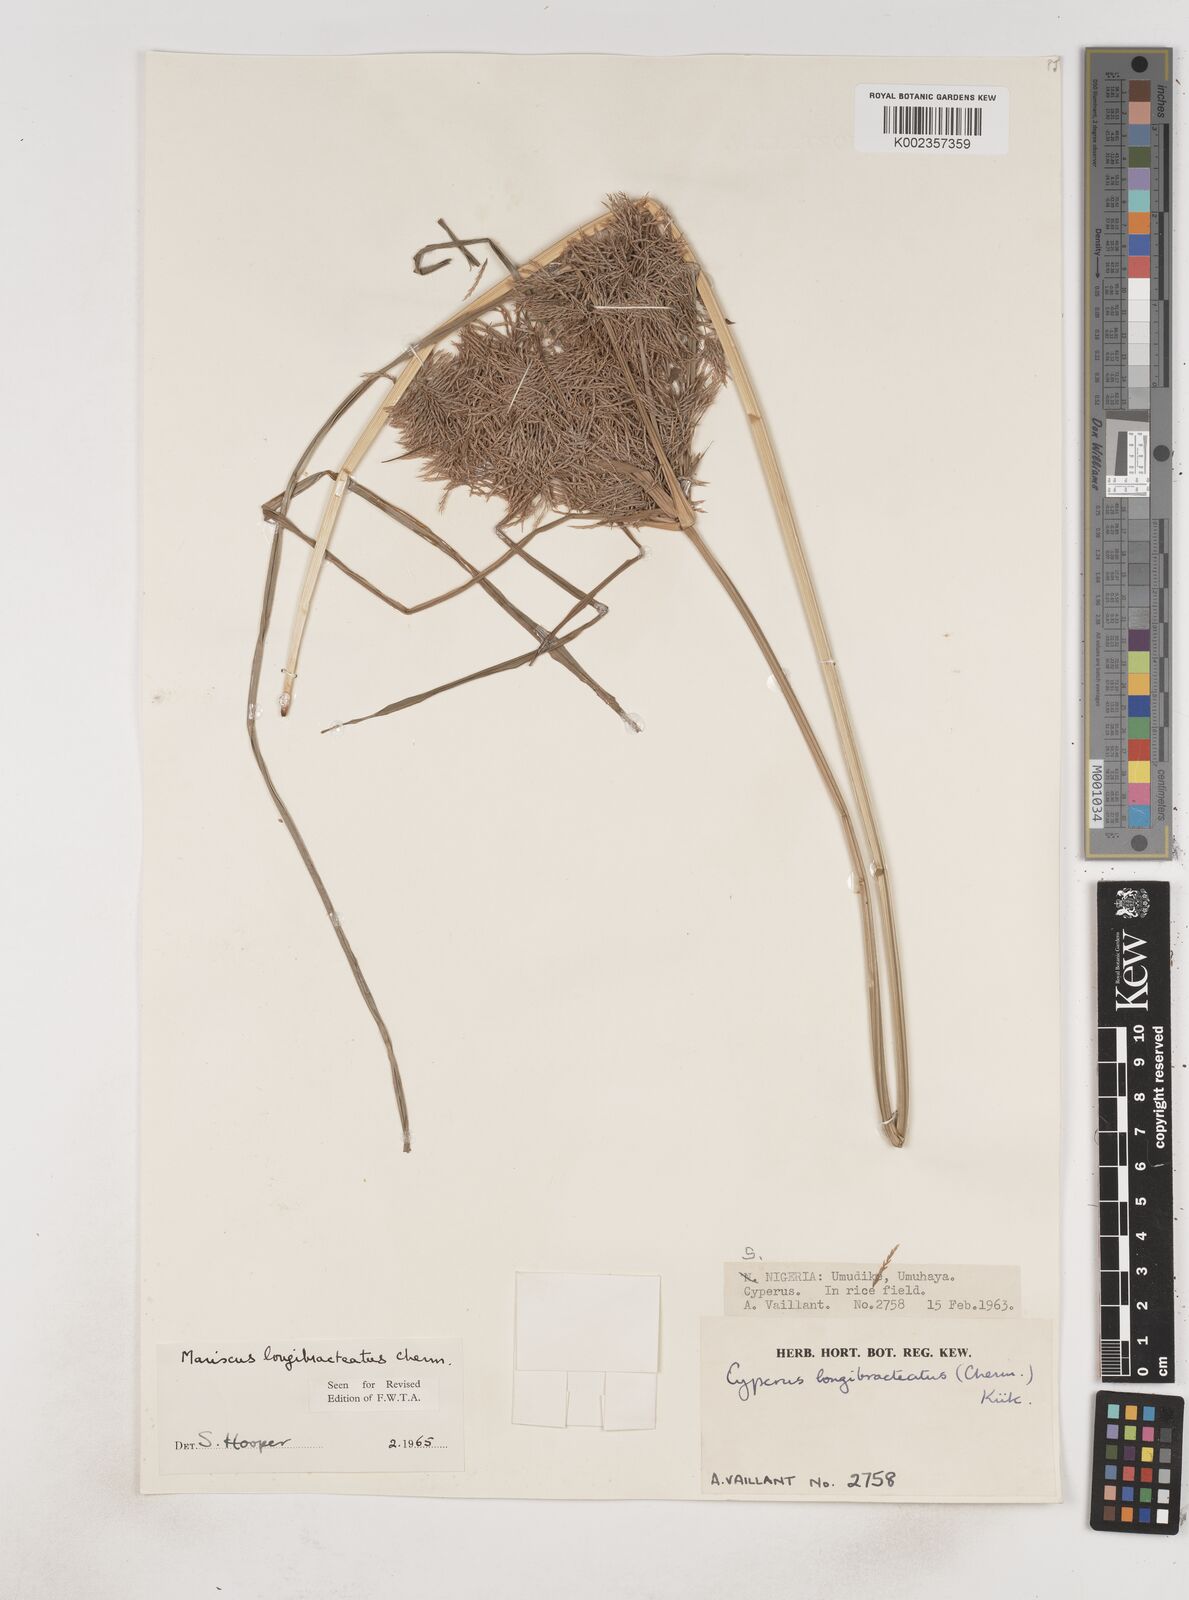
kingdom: Plantae
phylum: Tracheophyta
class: Liliopsida
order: Poales
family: Cyperaceae
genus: Cyperus
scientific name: Cyperus distans
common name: Slender cyperus
